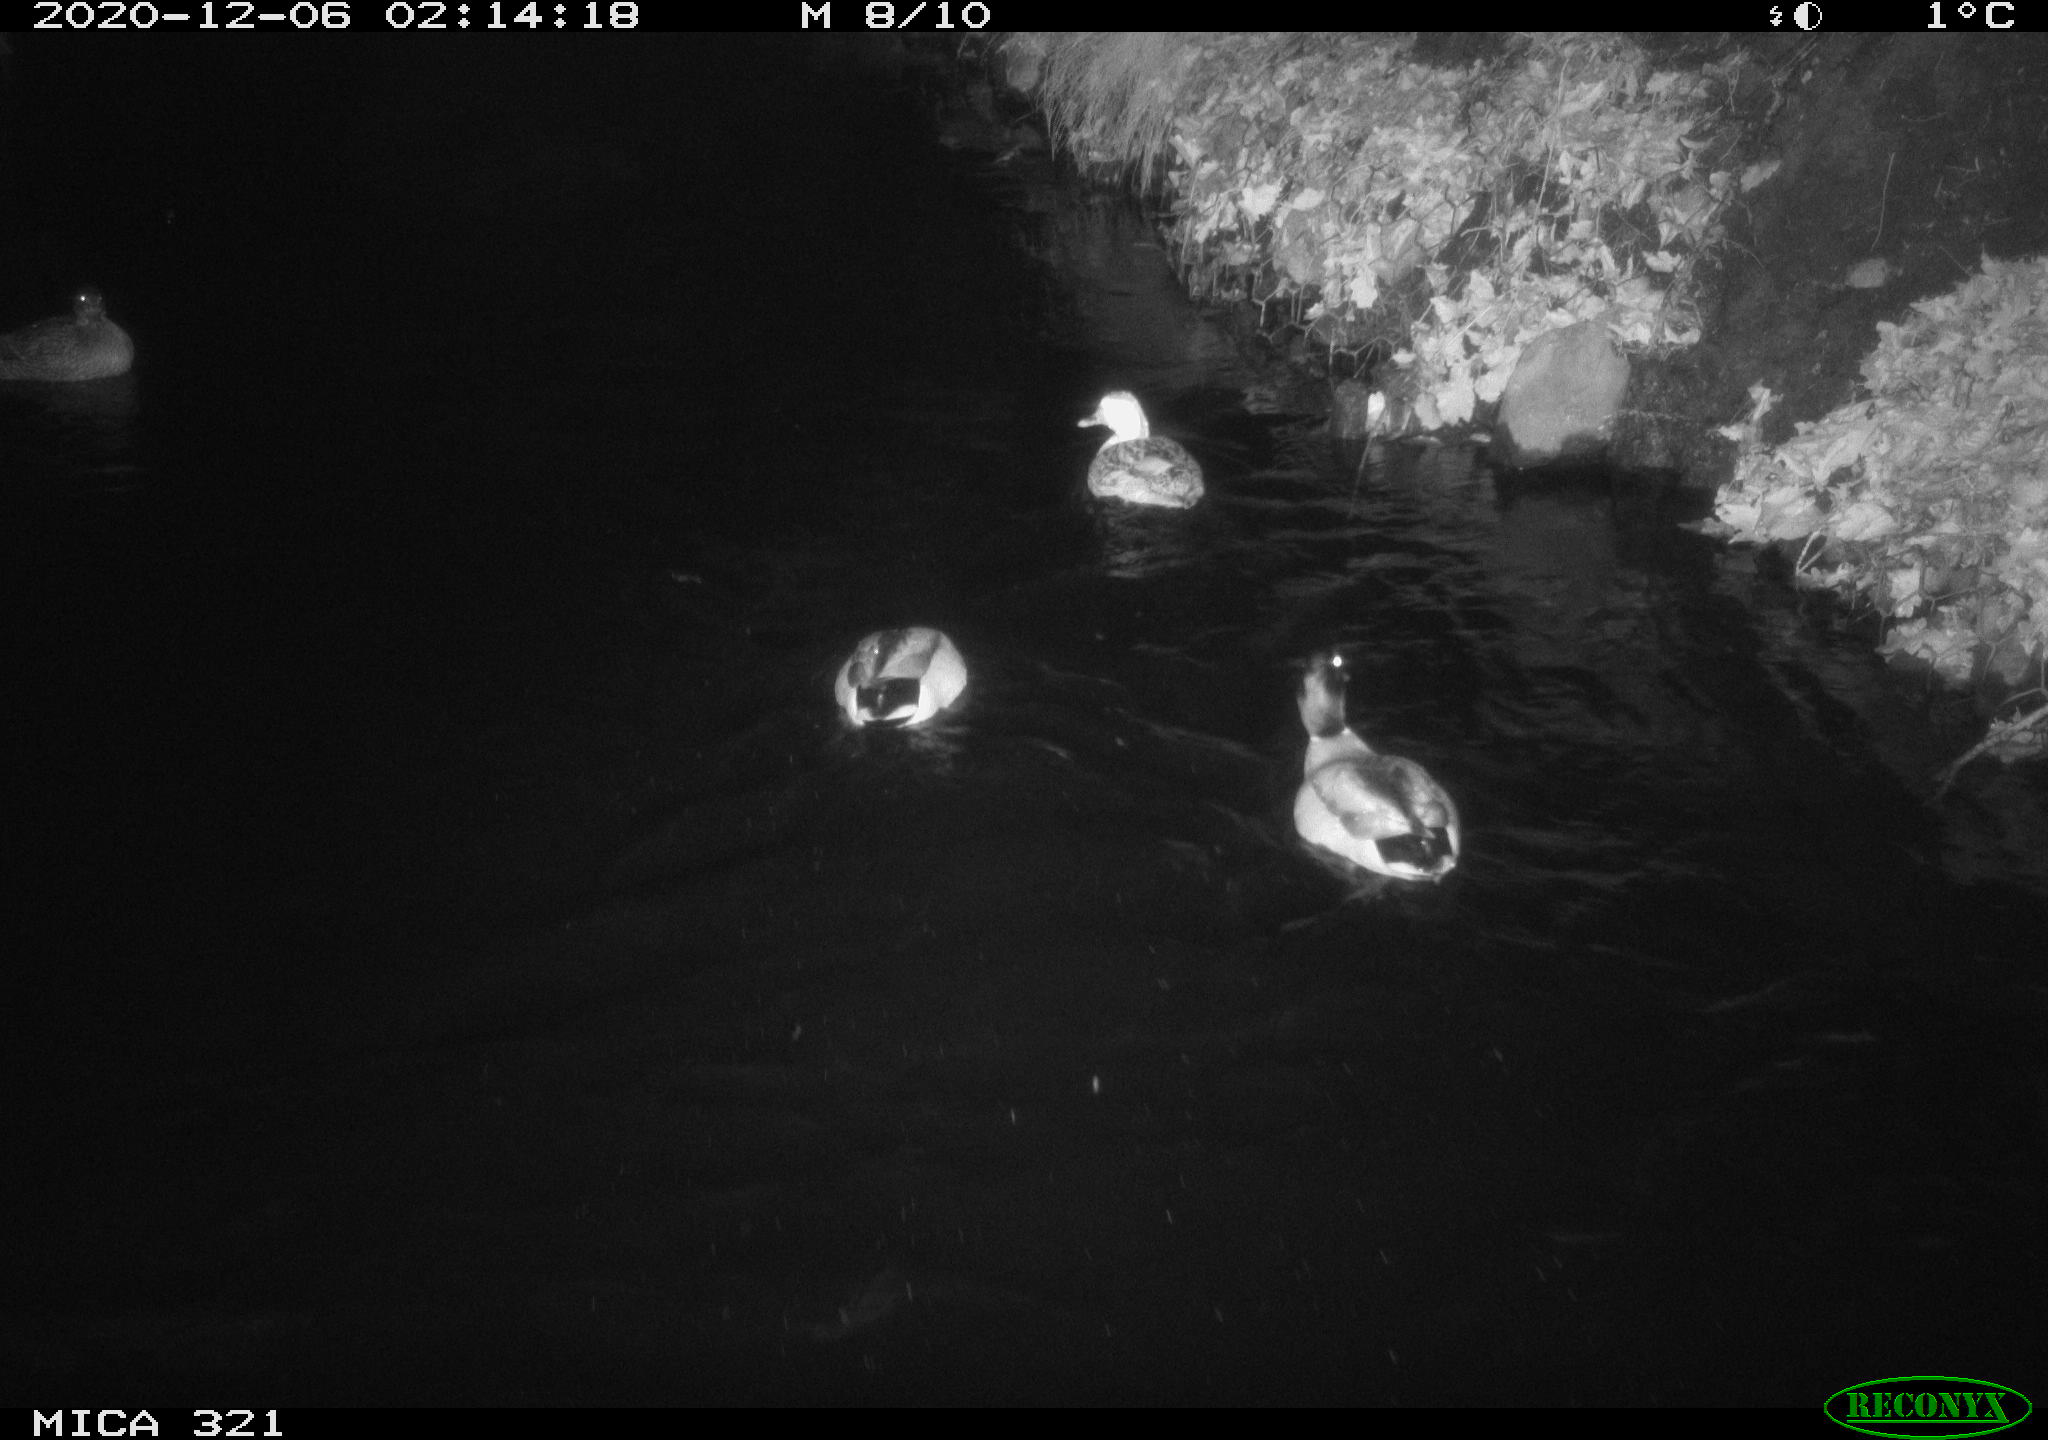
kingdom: Animalia
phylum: Chordata
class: Aves
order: Anseriformes
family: Anatidae
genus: Anas
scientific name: Anas platyrhynchos
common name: Mallard
